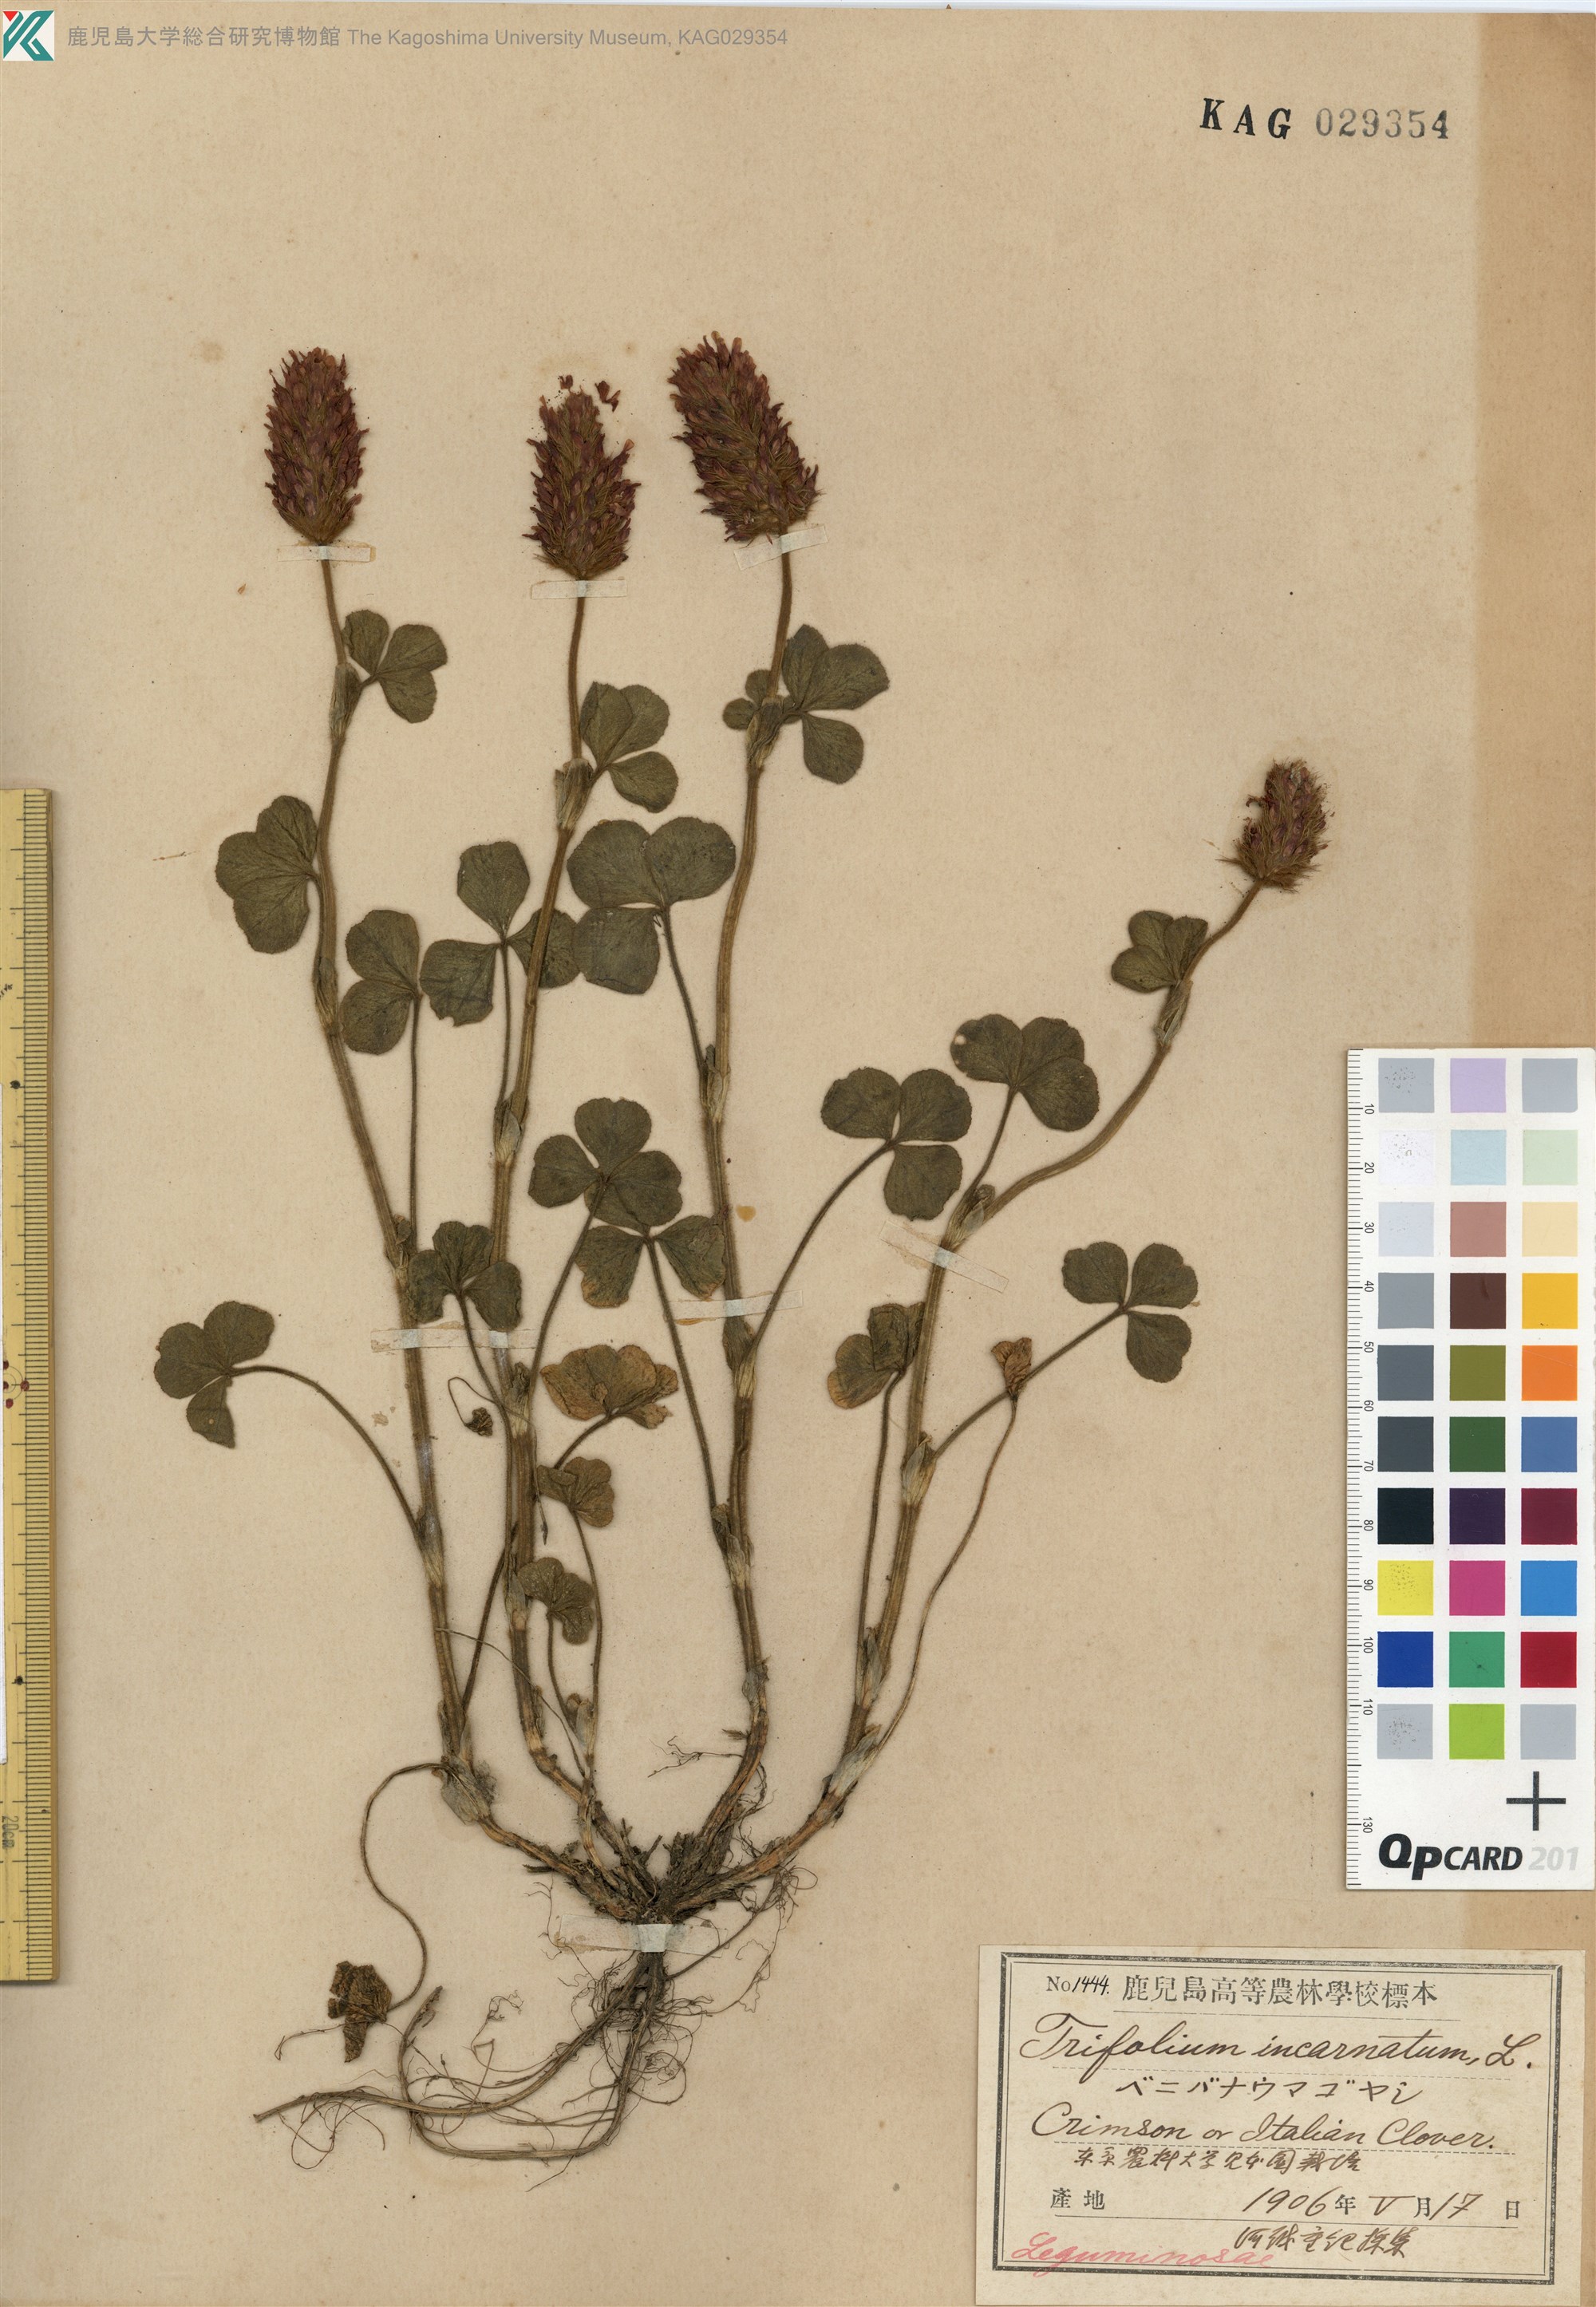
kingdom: Plantae
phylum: Tracheophyta
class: Magnoliopsida
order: Fabales
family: Fabaceae
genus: Trifolium
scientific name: Trifolium incarnatum
